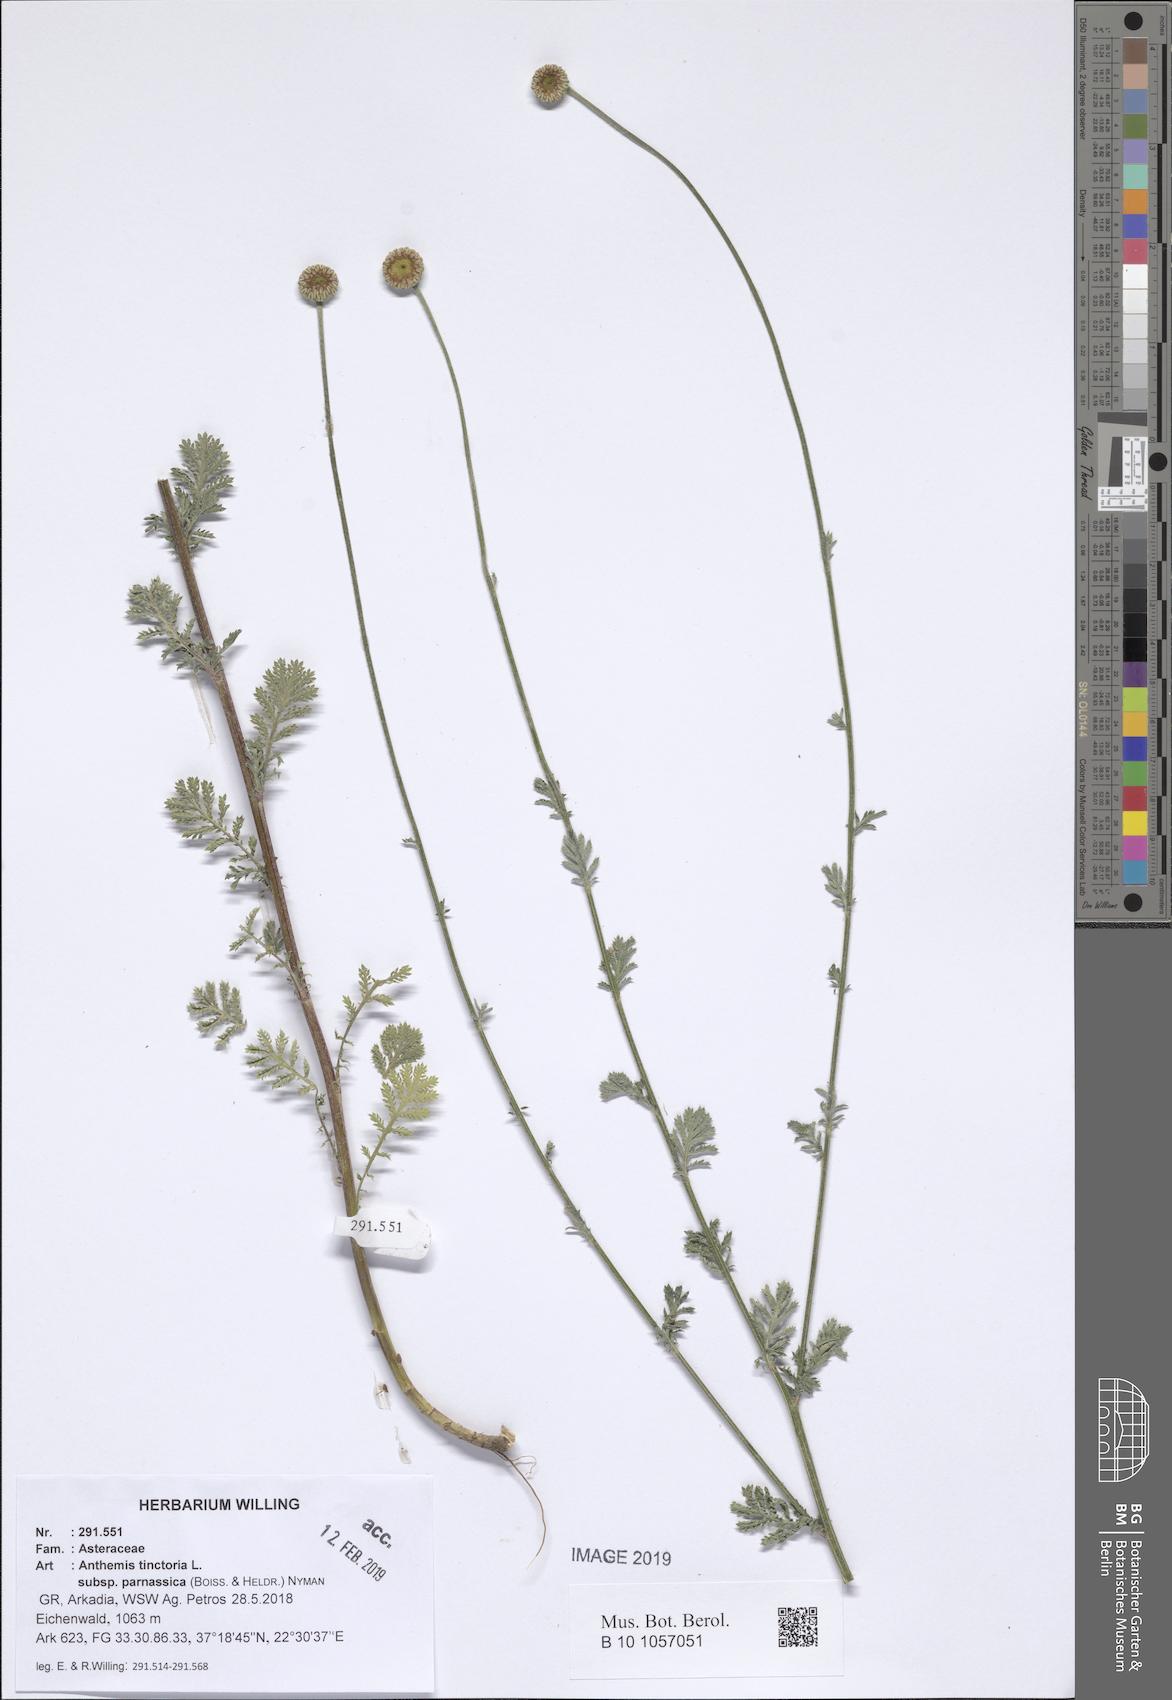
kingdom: Plantae
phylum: Tracheophyta
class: Magnoliopsida
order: Asterales
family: Asteraceae
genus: Cota
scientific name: Cota tinctoria
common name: Golden chamomile
